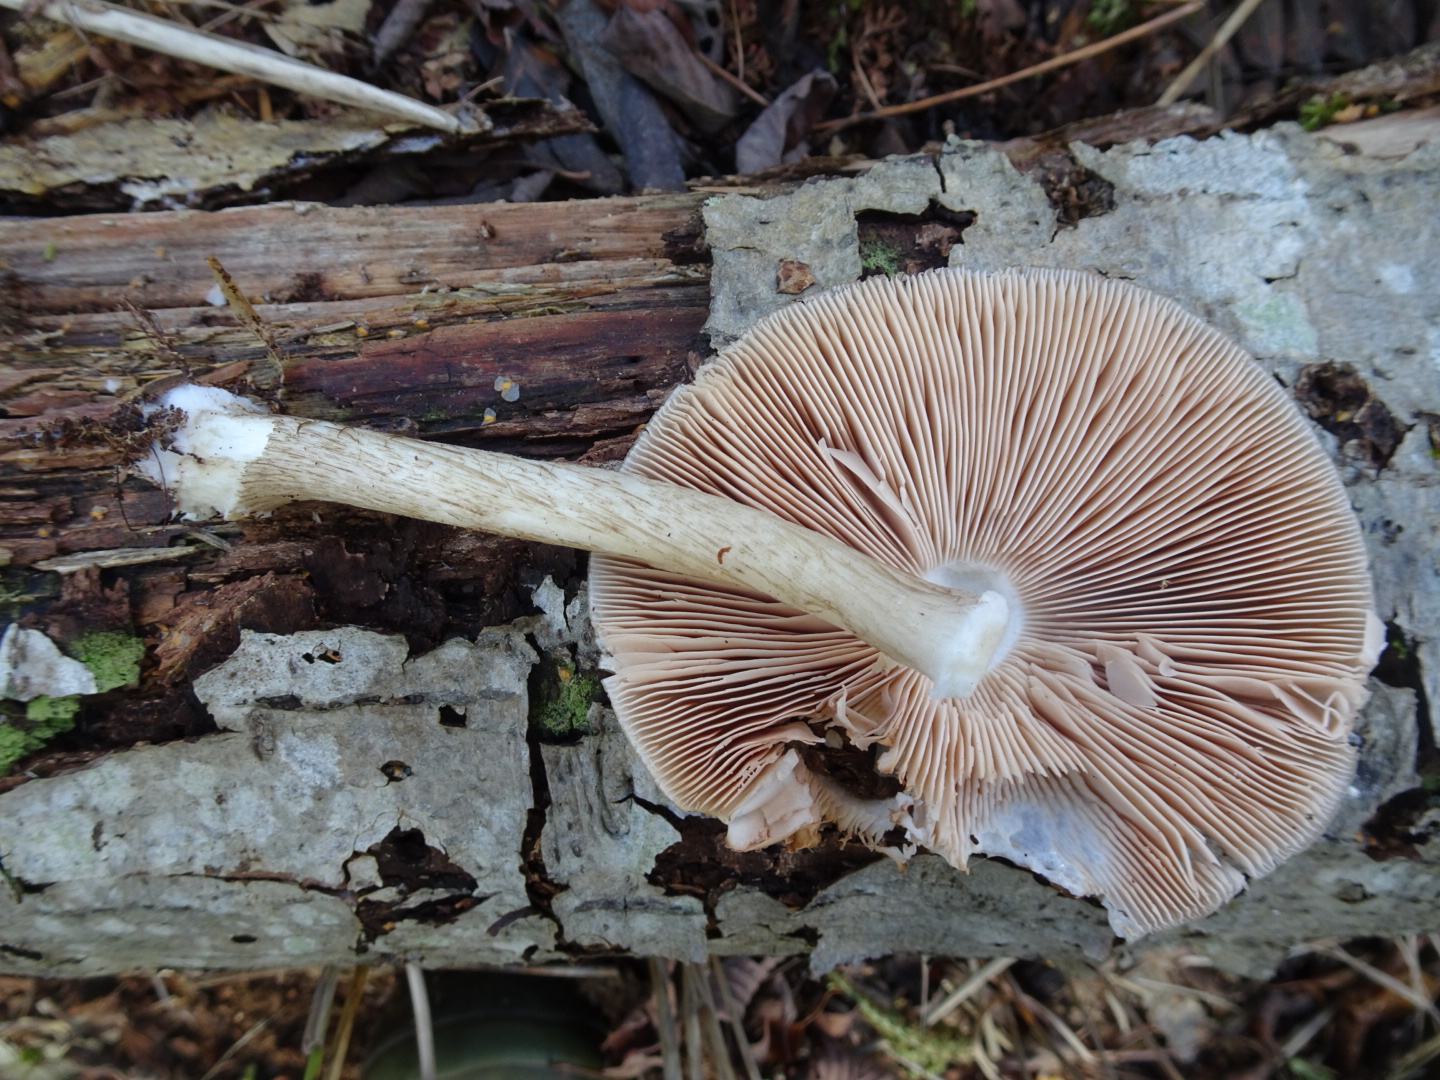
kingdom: Fungi
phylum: Basidiomycota
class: Agaricomycetes
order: Agaricales
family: Pluteaceae
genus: Pluteus
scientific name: Pluteus cervinus
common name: sodfarvet skærmhat
